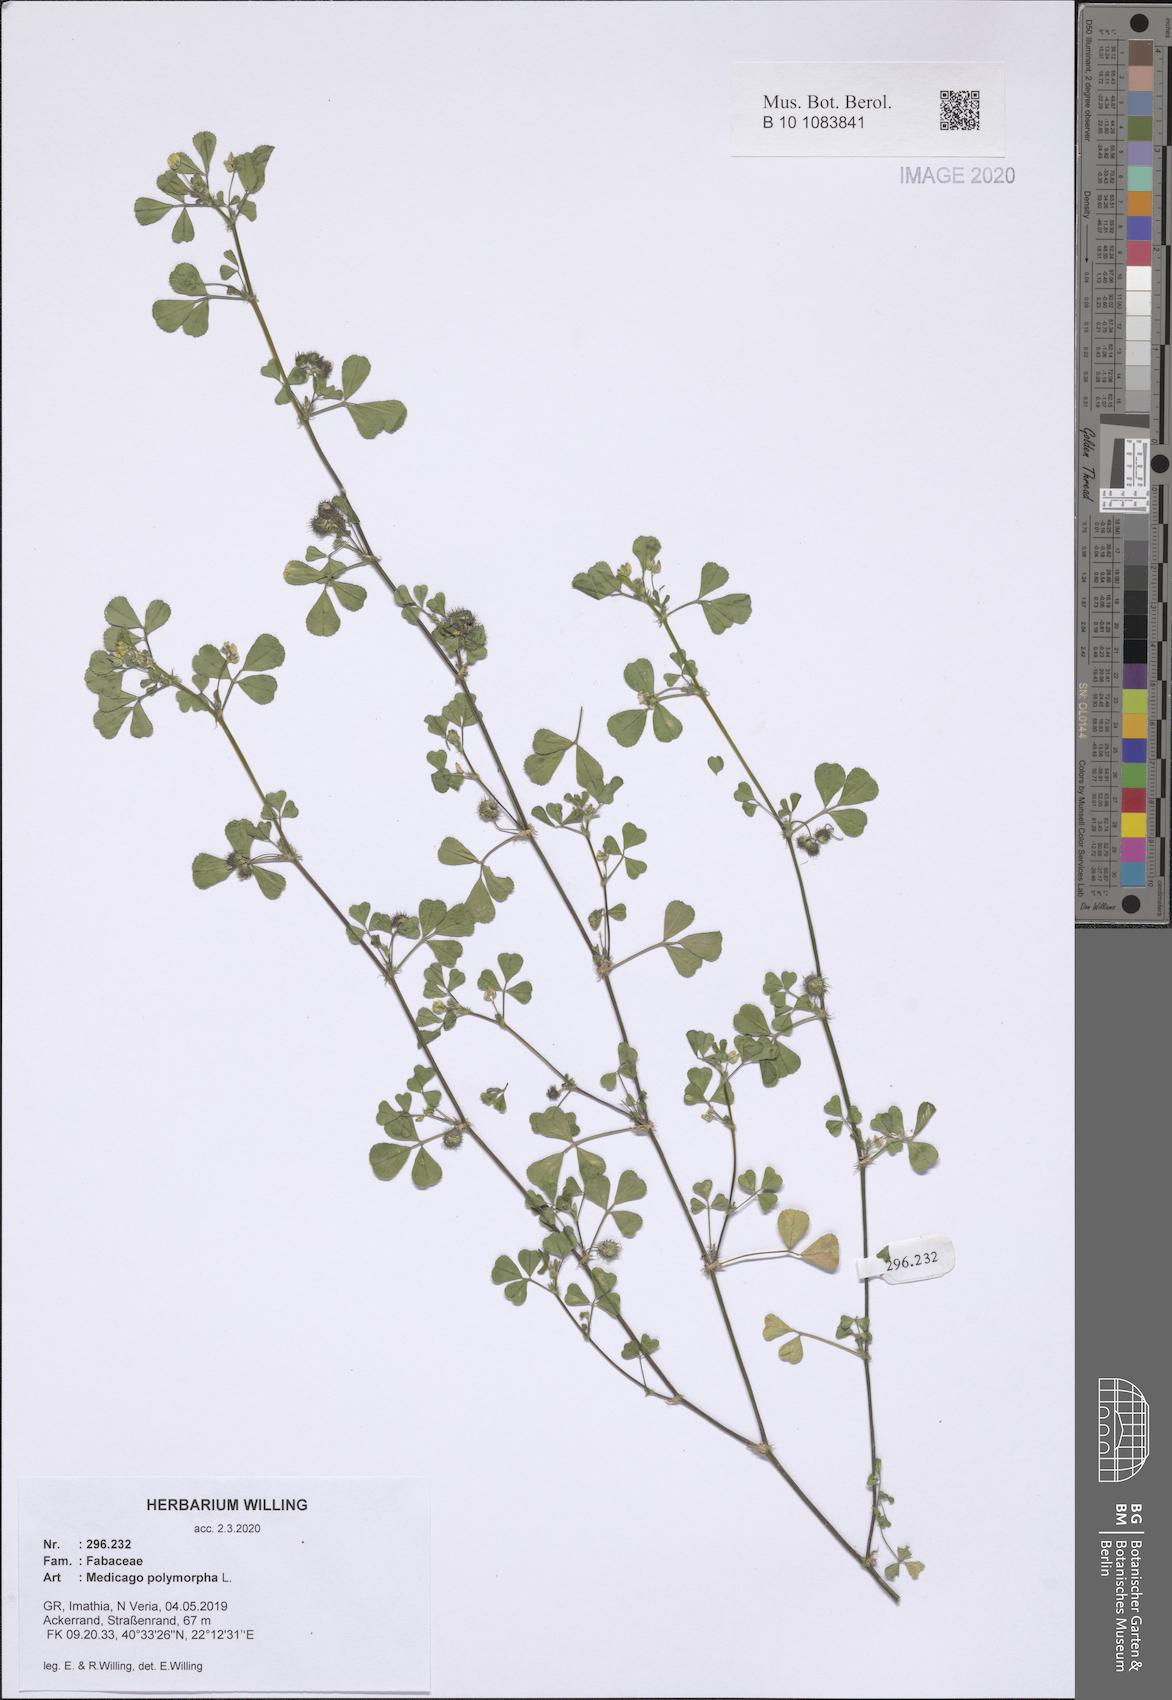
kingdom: Plantae
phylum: Tracheophyta
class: Magnoliopsida
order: Fabales
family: Fabaceae
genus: Medicago
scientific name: Medicago polymorpha
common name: Burclover
